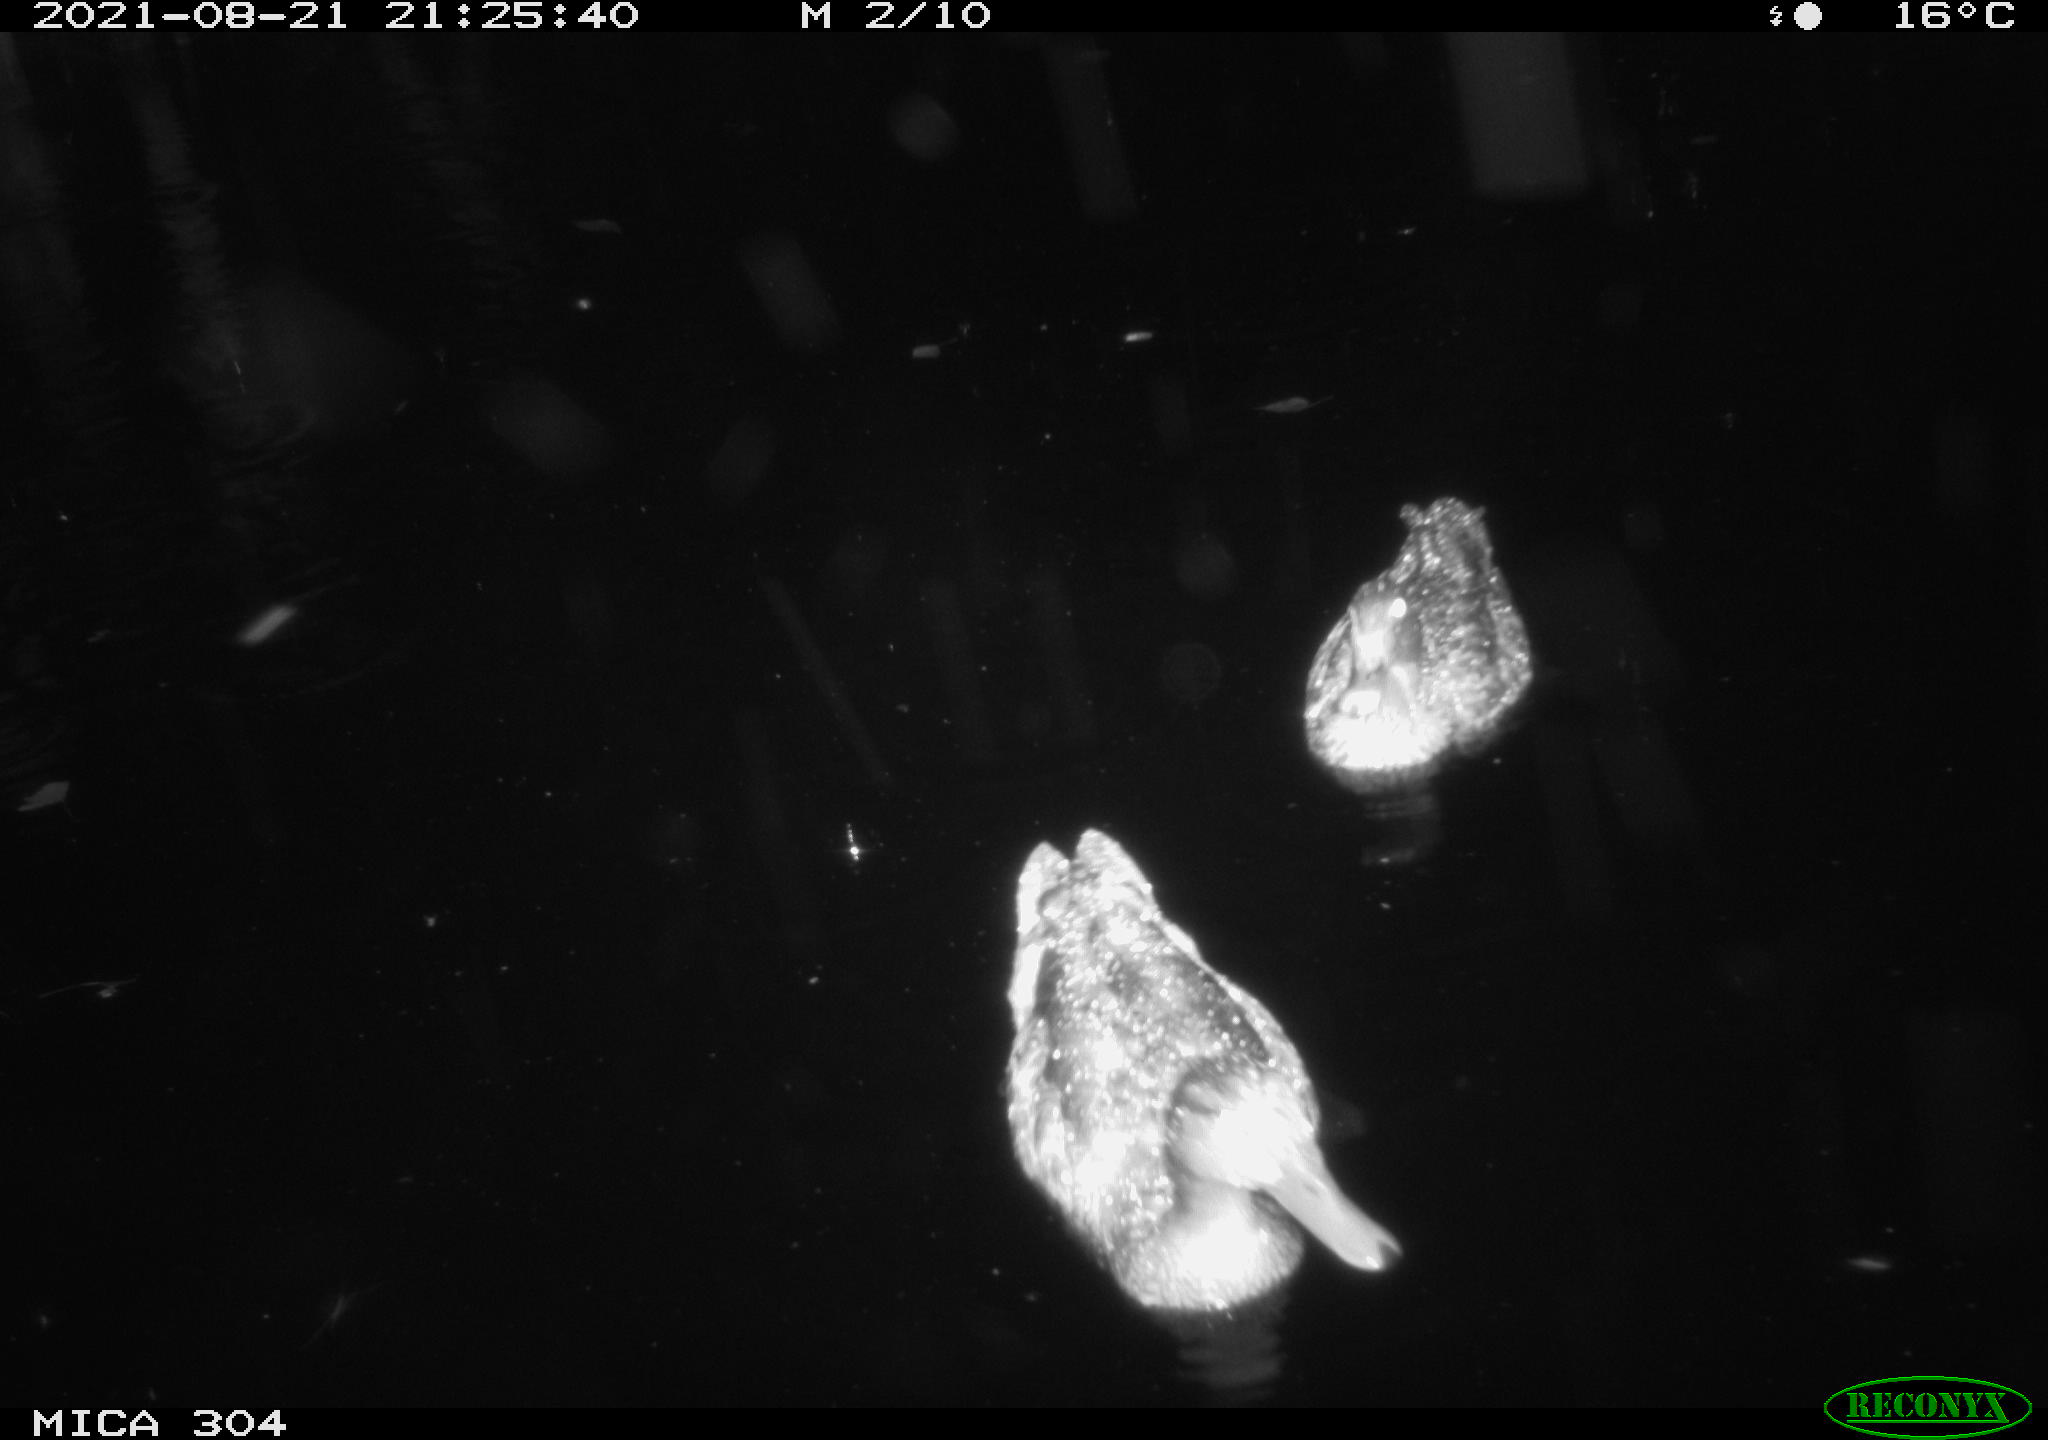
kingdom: Animalia
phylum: Chordata
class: Aves
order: Anseriformes
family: Anatidae
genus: Anas
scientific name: Anas platyrhynchos
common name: Mallard
